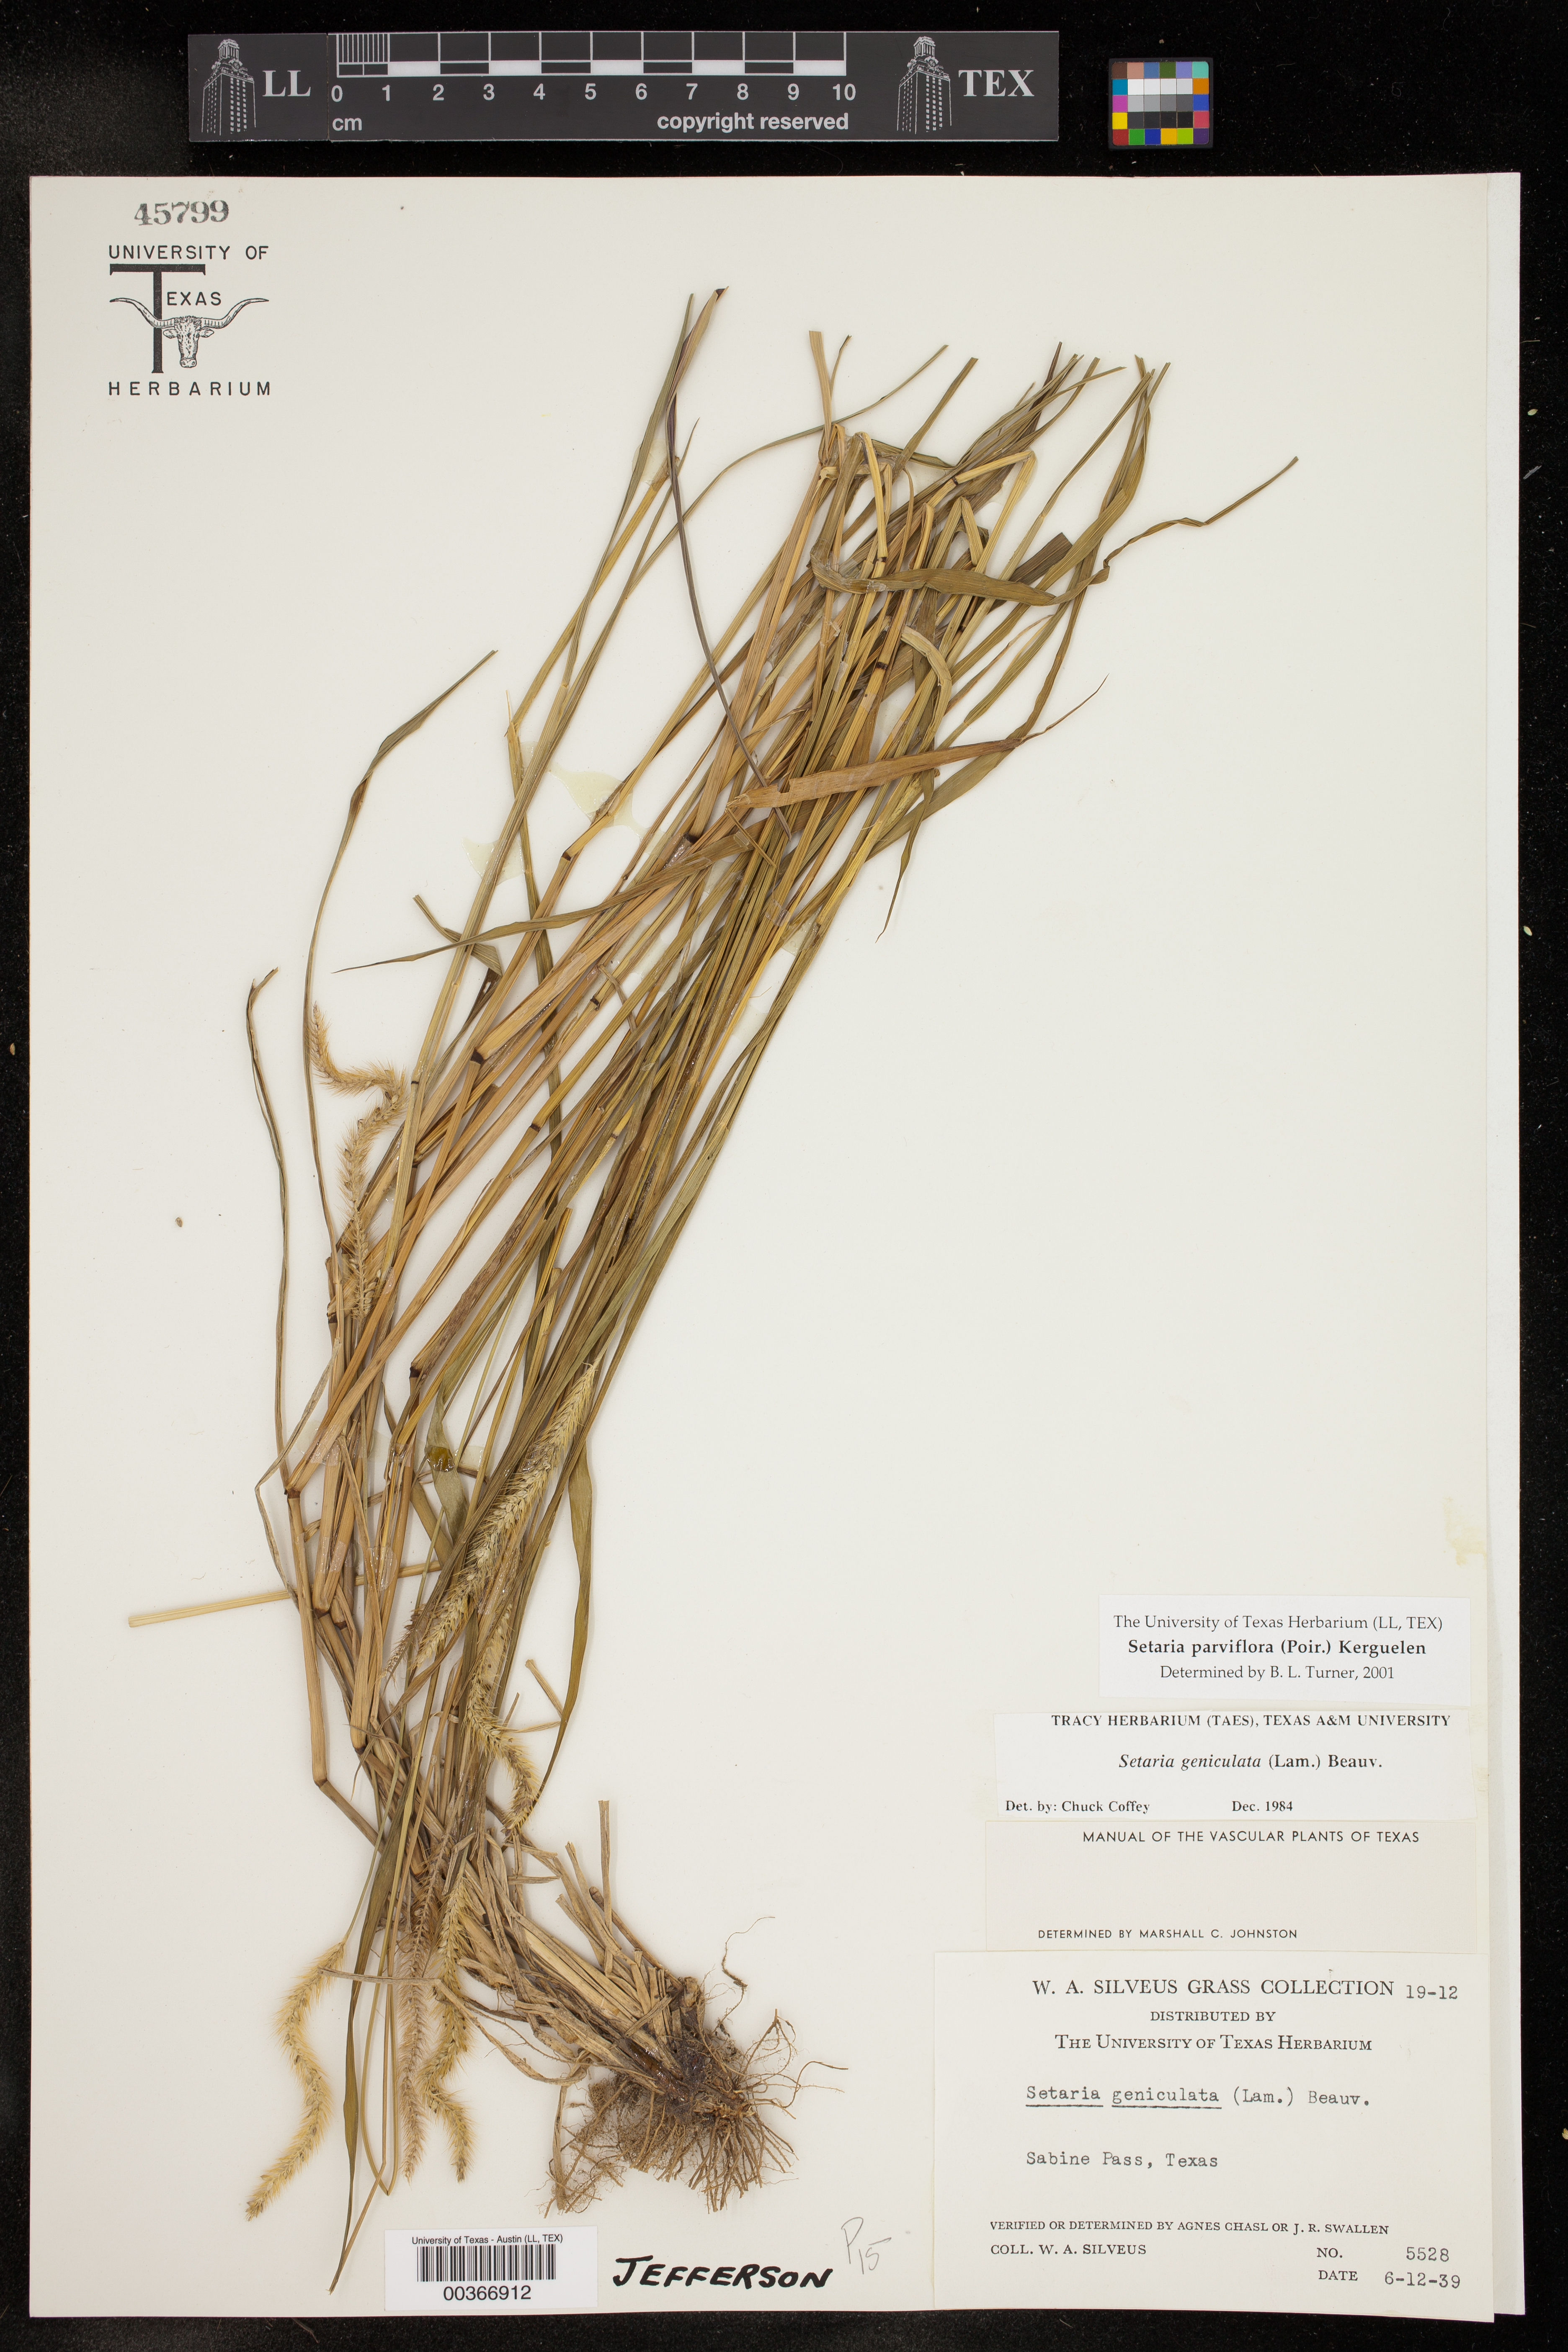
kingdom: Plantae
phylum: Tracheophyta
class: Liliopsida
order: Poales
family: Poaceae
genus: Setaria
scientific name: Setaria parviflora
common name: Knotroot bristle-grass
